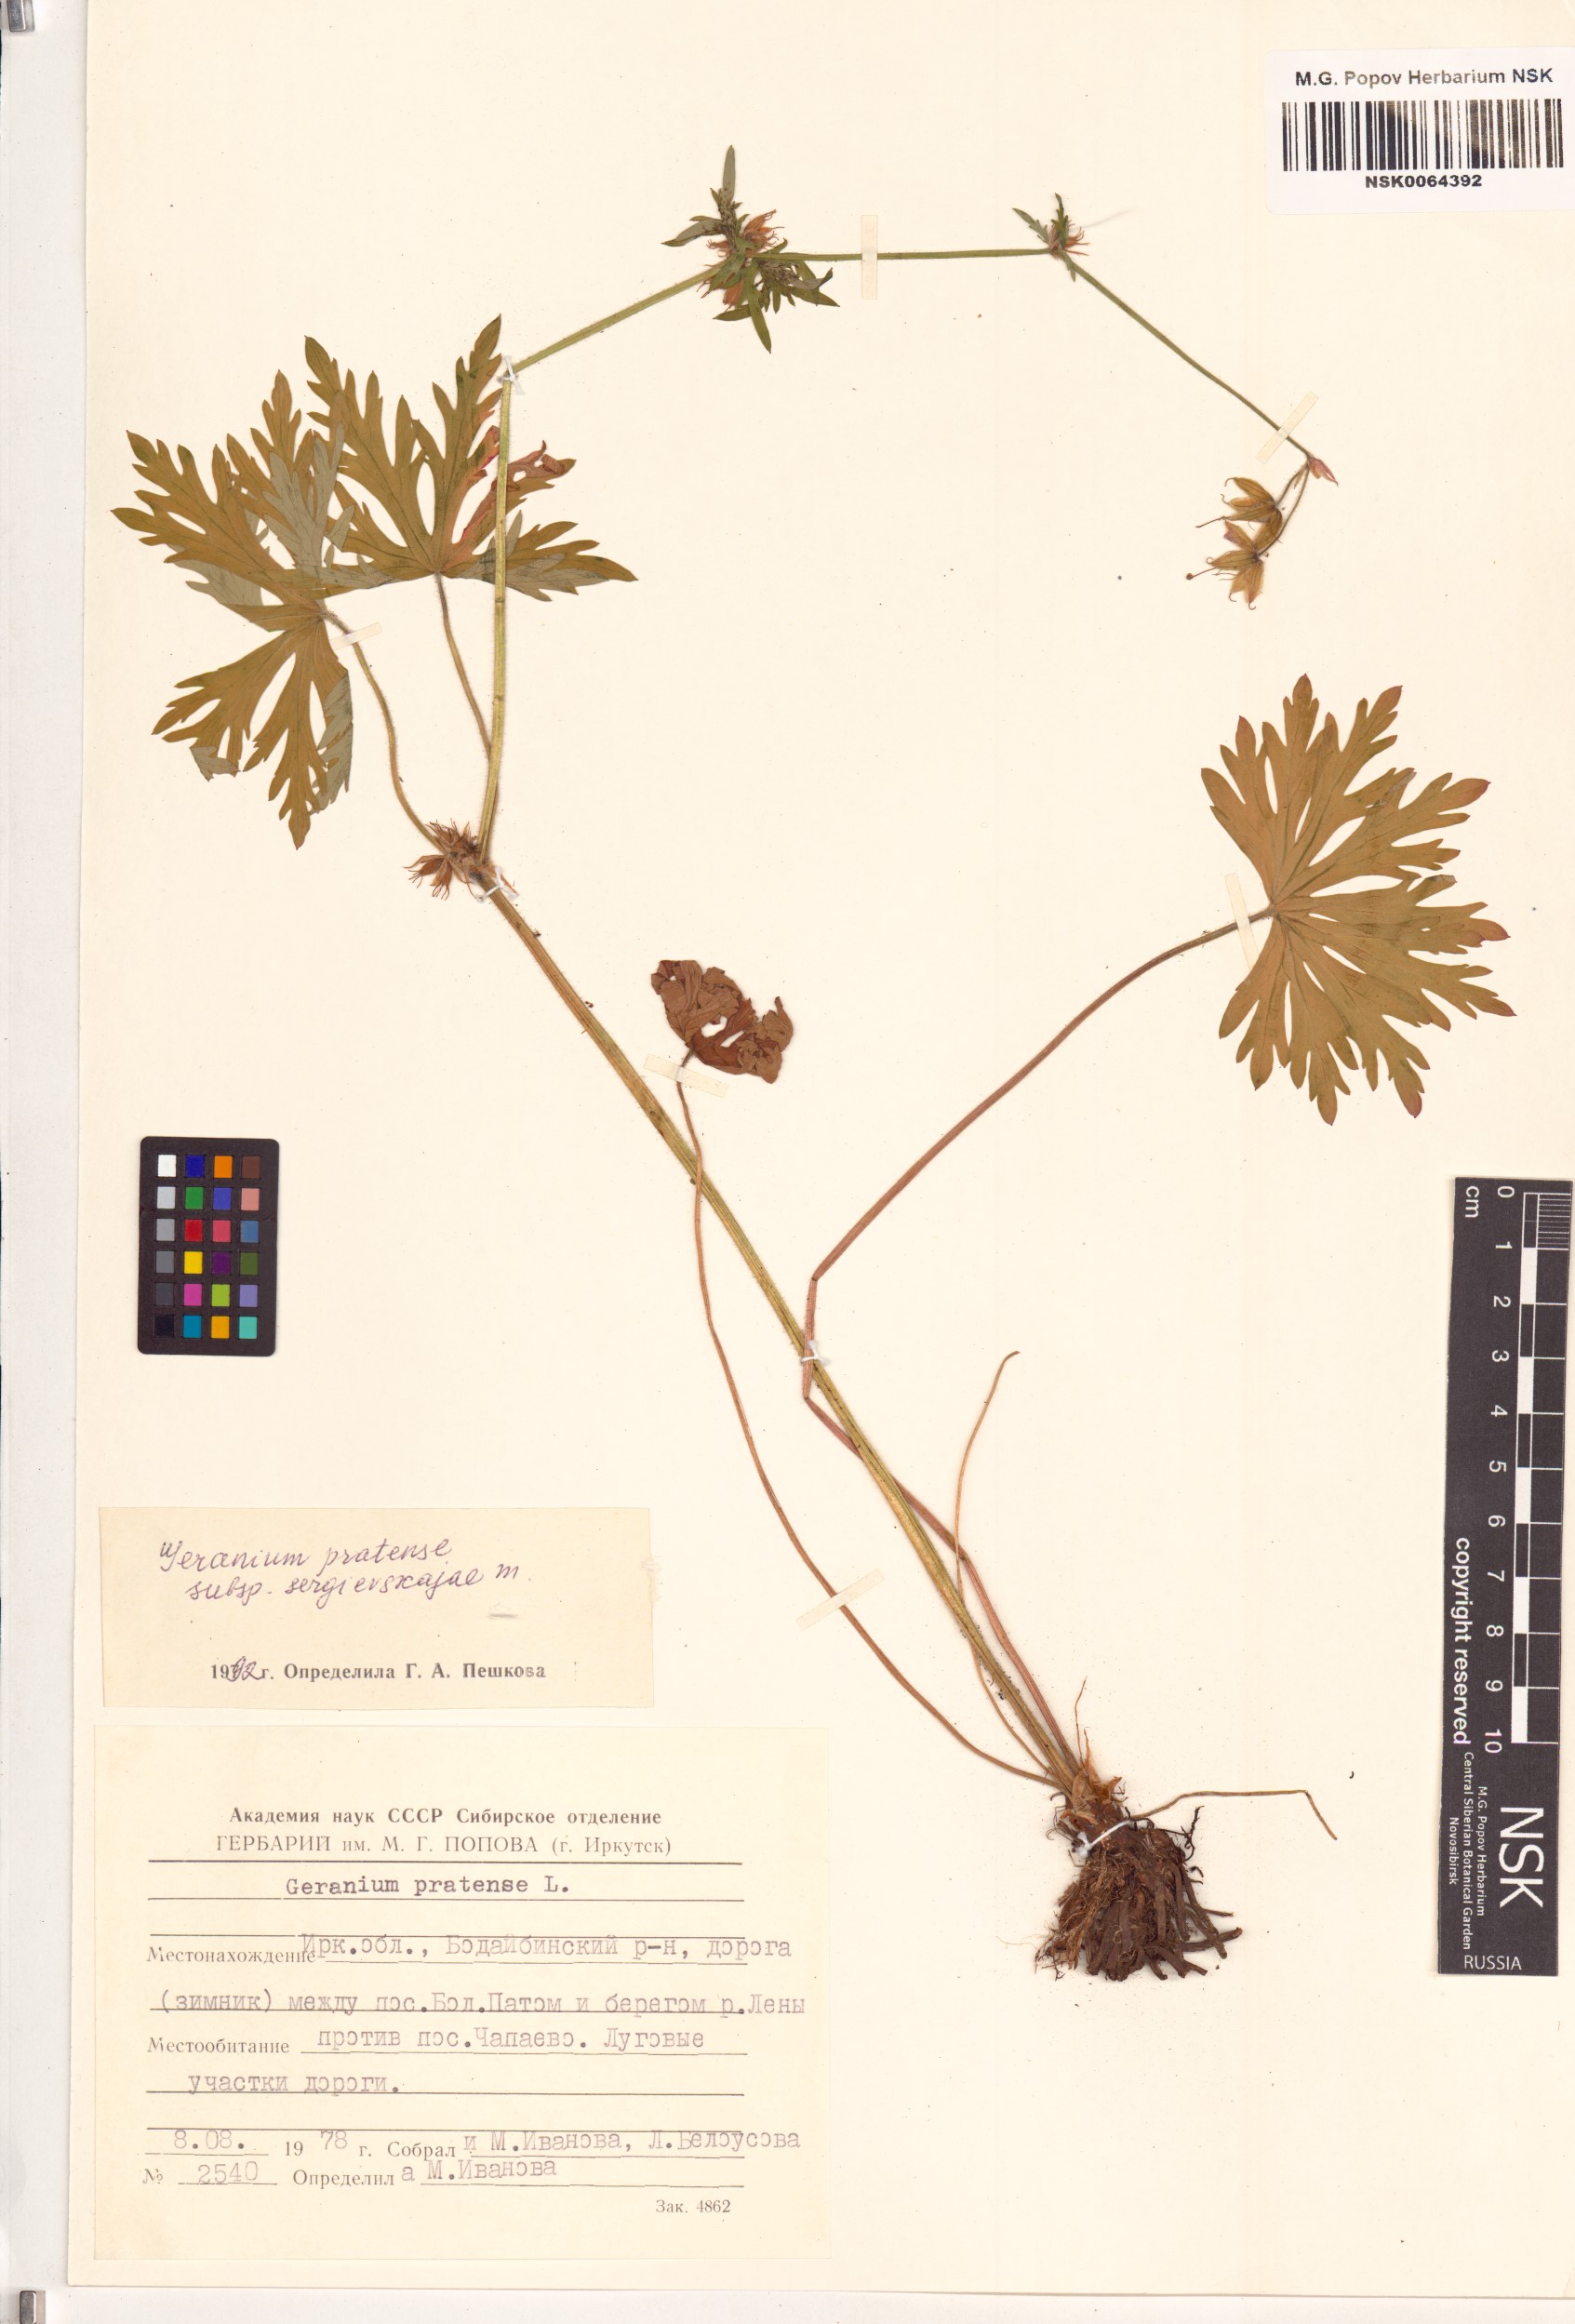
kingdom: Plantae
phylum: Tracheophyta
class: Magnoliopsida
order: Geraniales
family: Geraniaceae
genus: Geranium
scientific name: Geranium pratense
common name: Meadow crane's-bill
